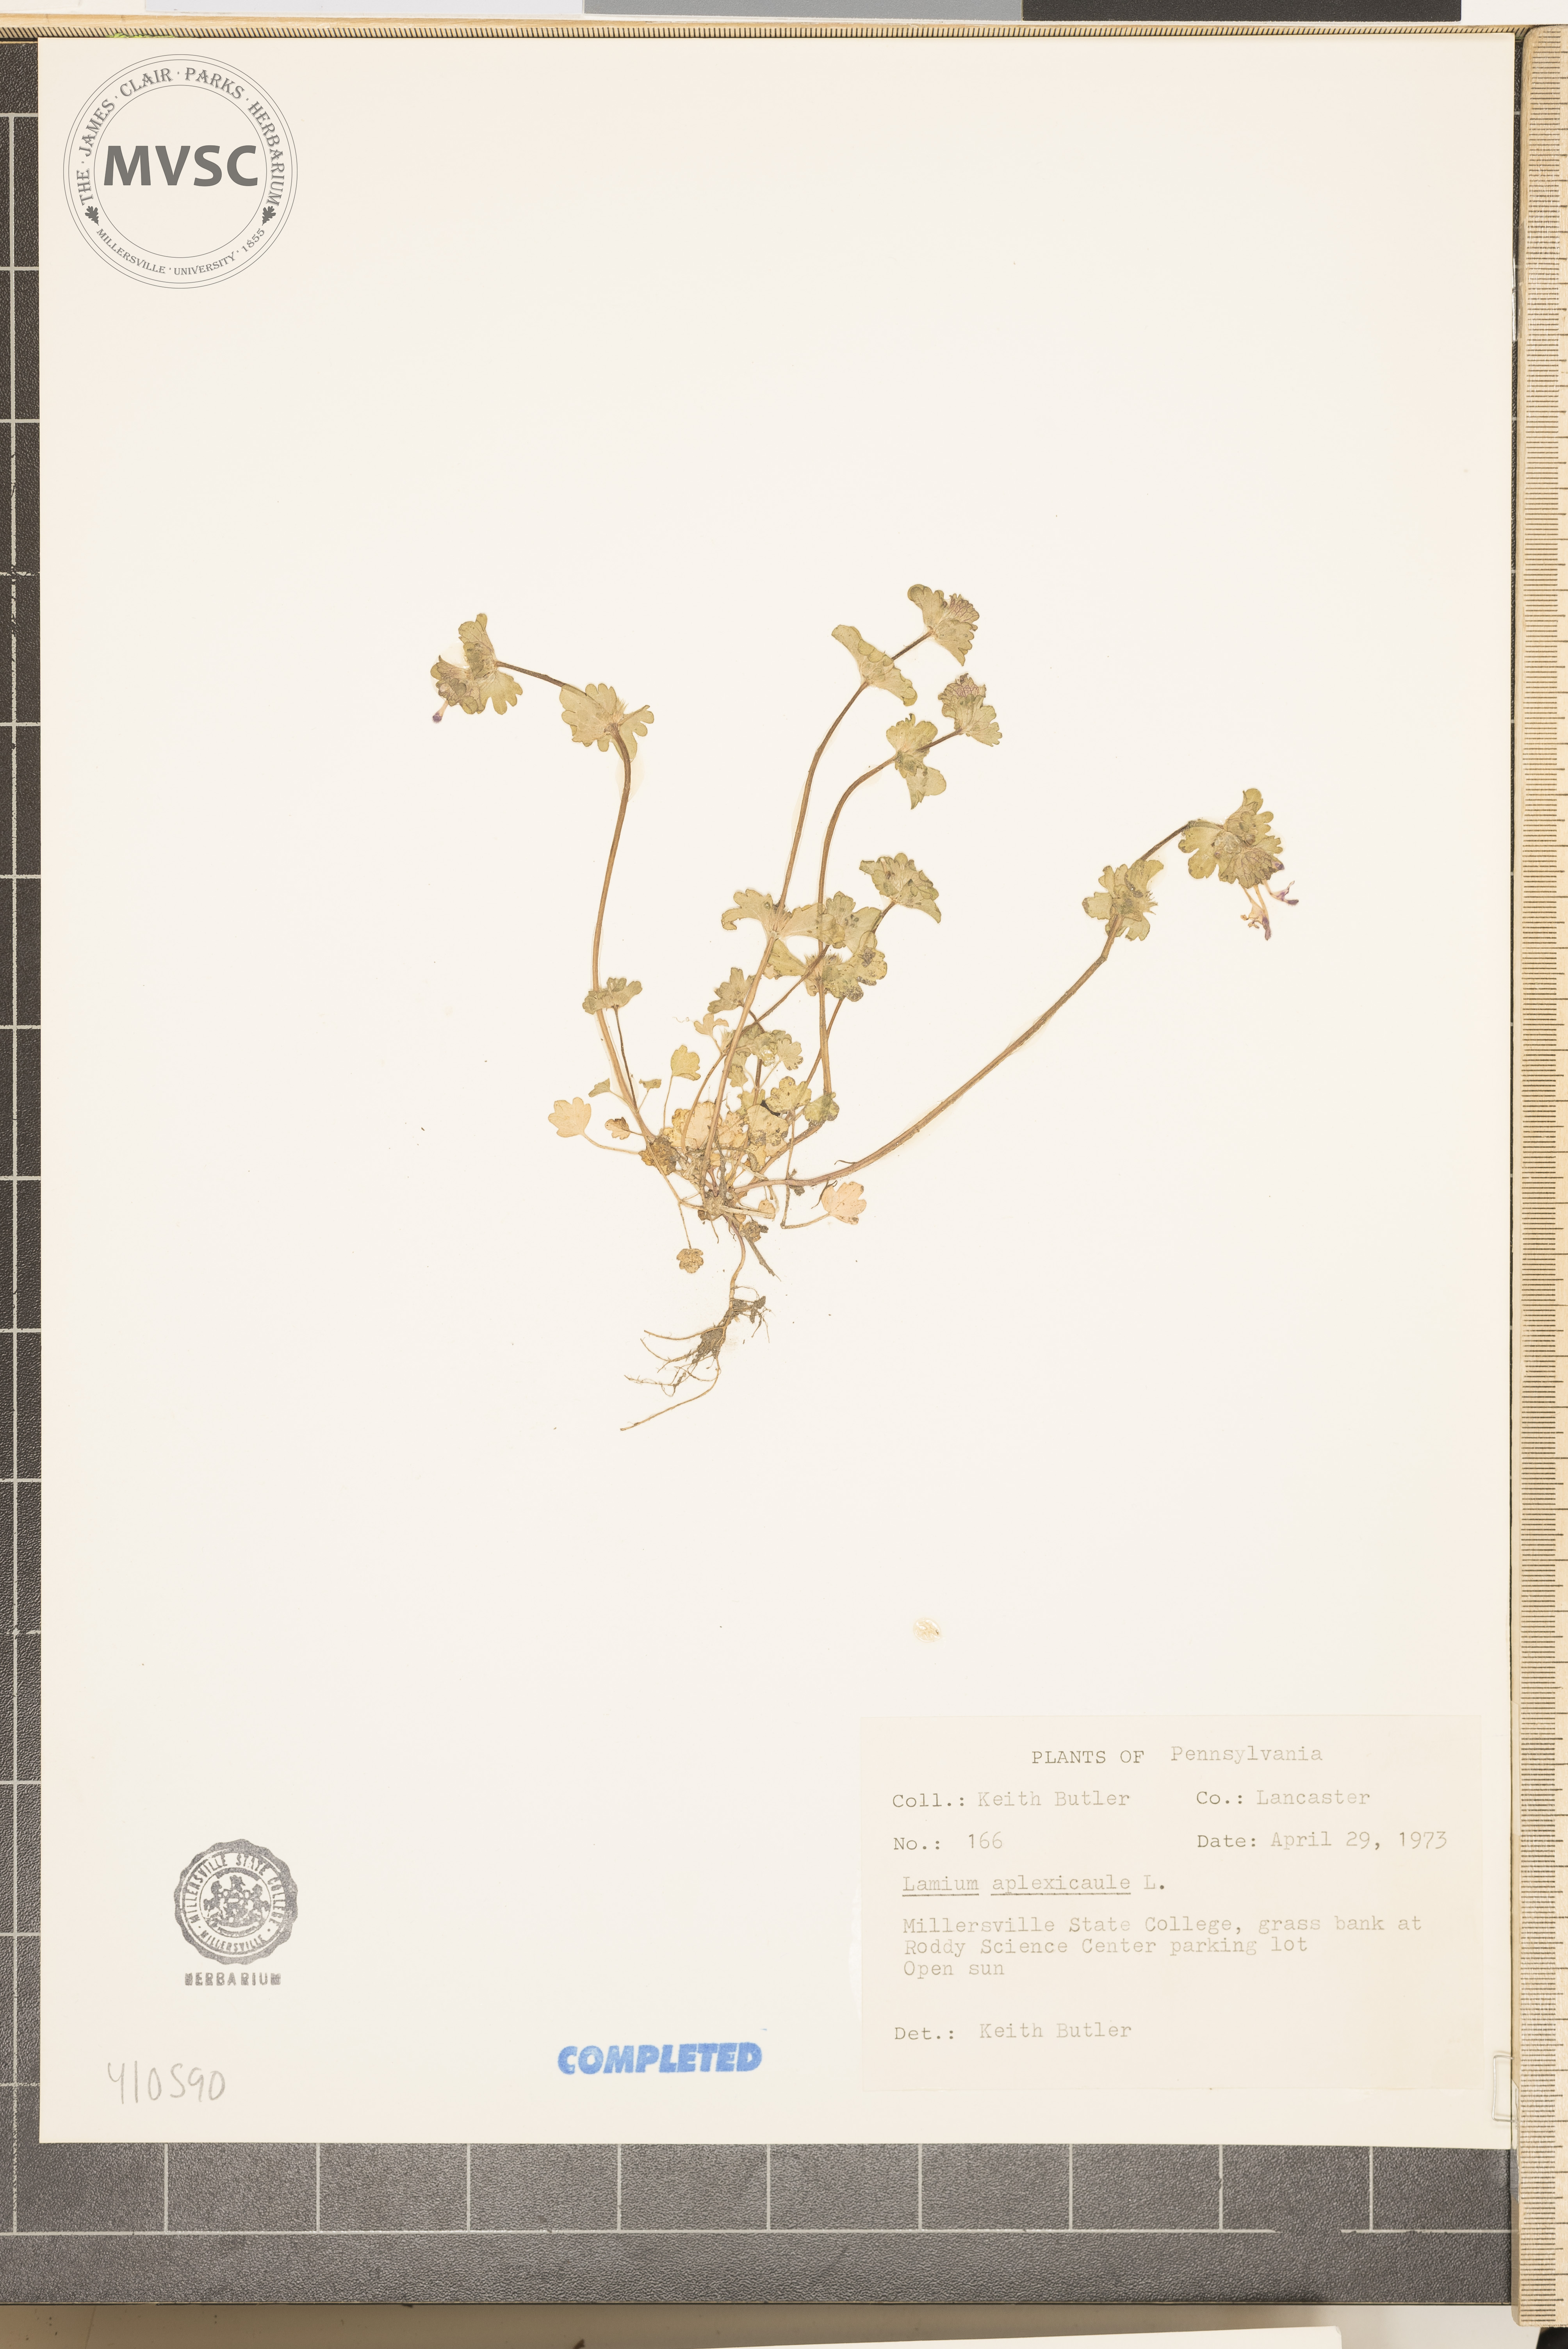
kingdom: Plantae
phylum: Tracheophyta
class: Magnoliopsida
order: Lamiales
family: Lamiaceae
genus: Lamium
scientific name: Lamium amplexicaule
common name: henbit
